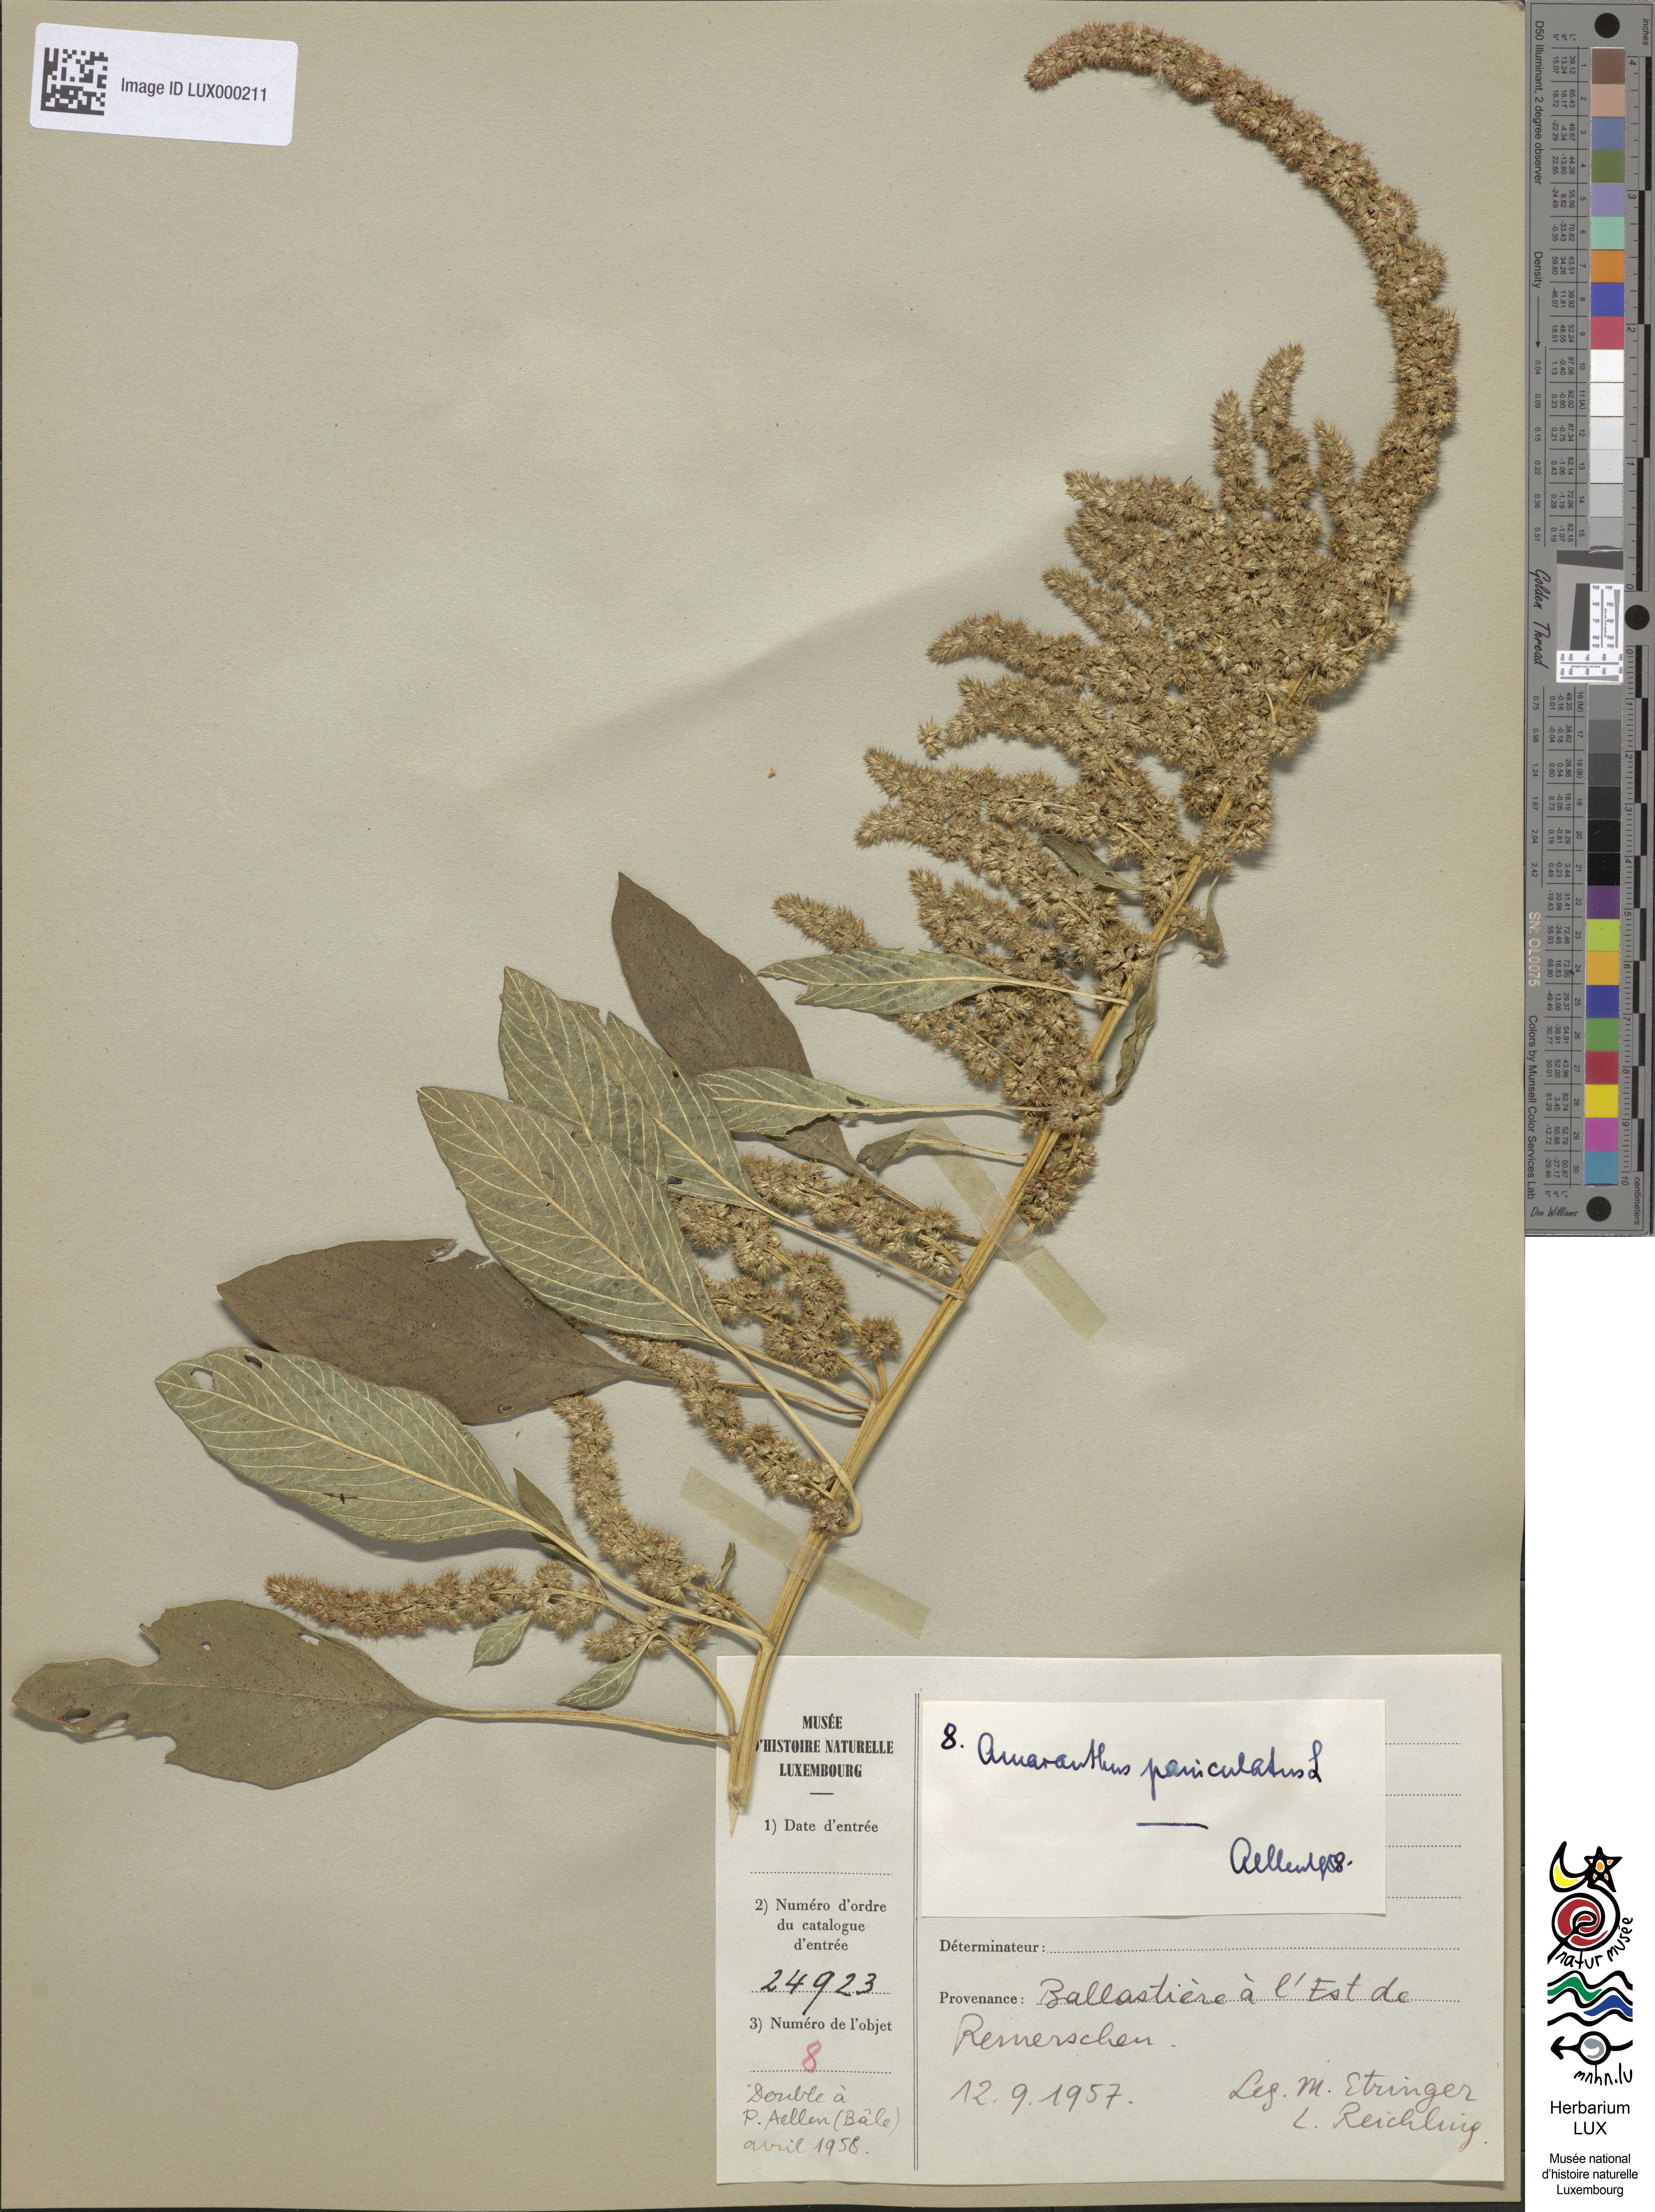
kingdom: Plantae
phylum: Tracheophyta
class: Magnoliopsida
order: Caryophyllales
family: Amaranthaceae
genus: Amaranthus
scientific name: Amaranthus cruentus
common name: Purple amaranth
